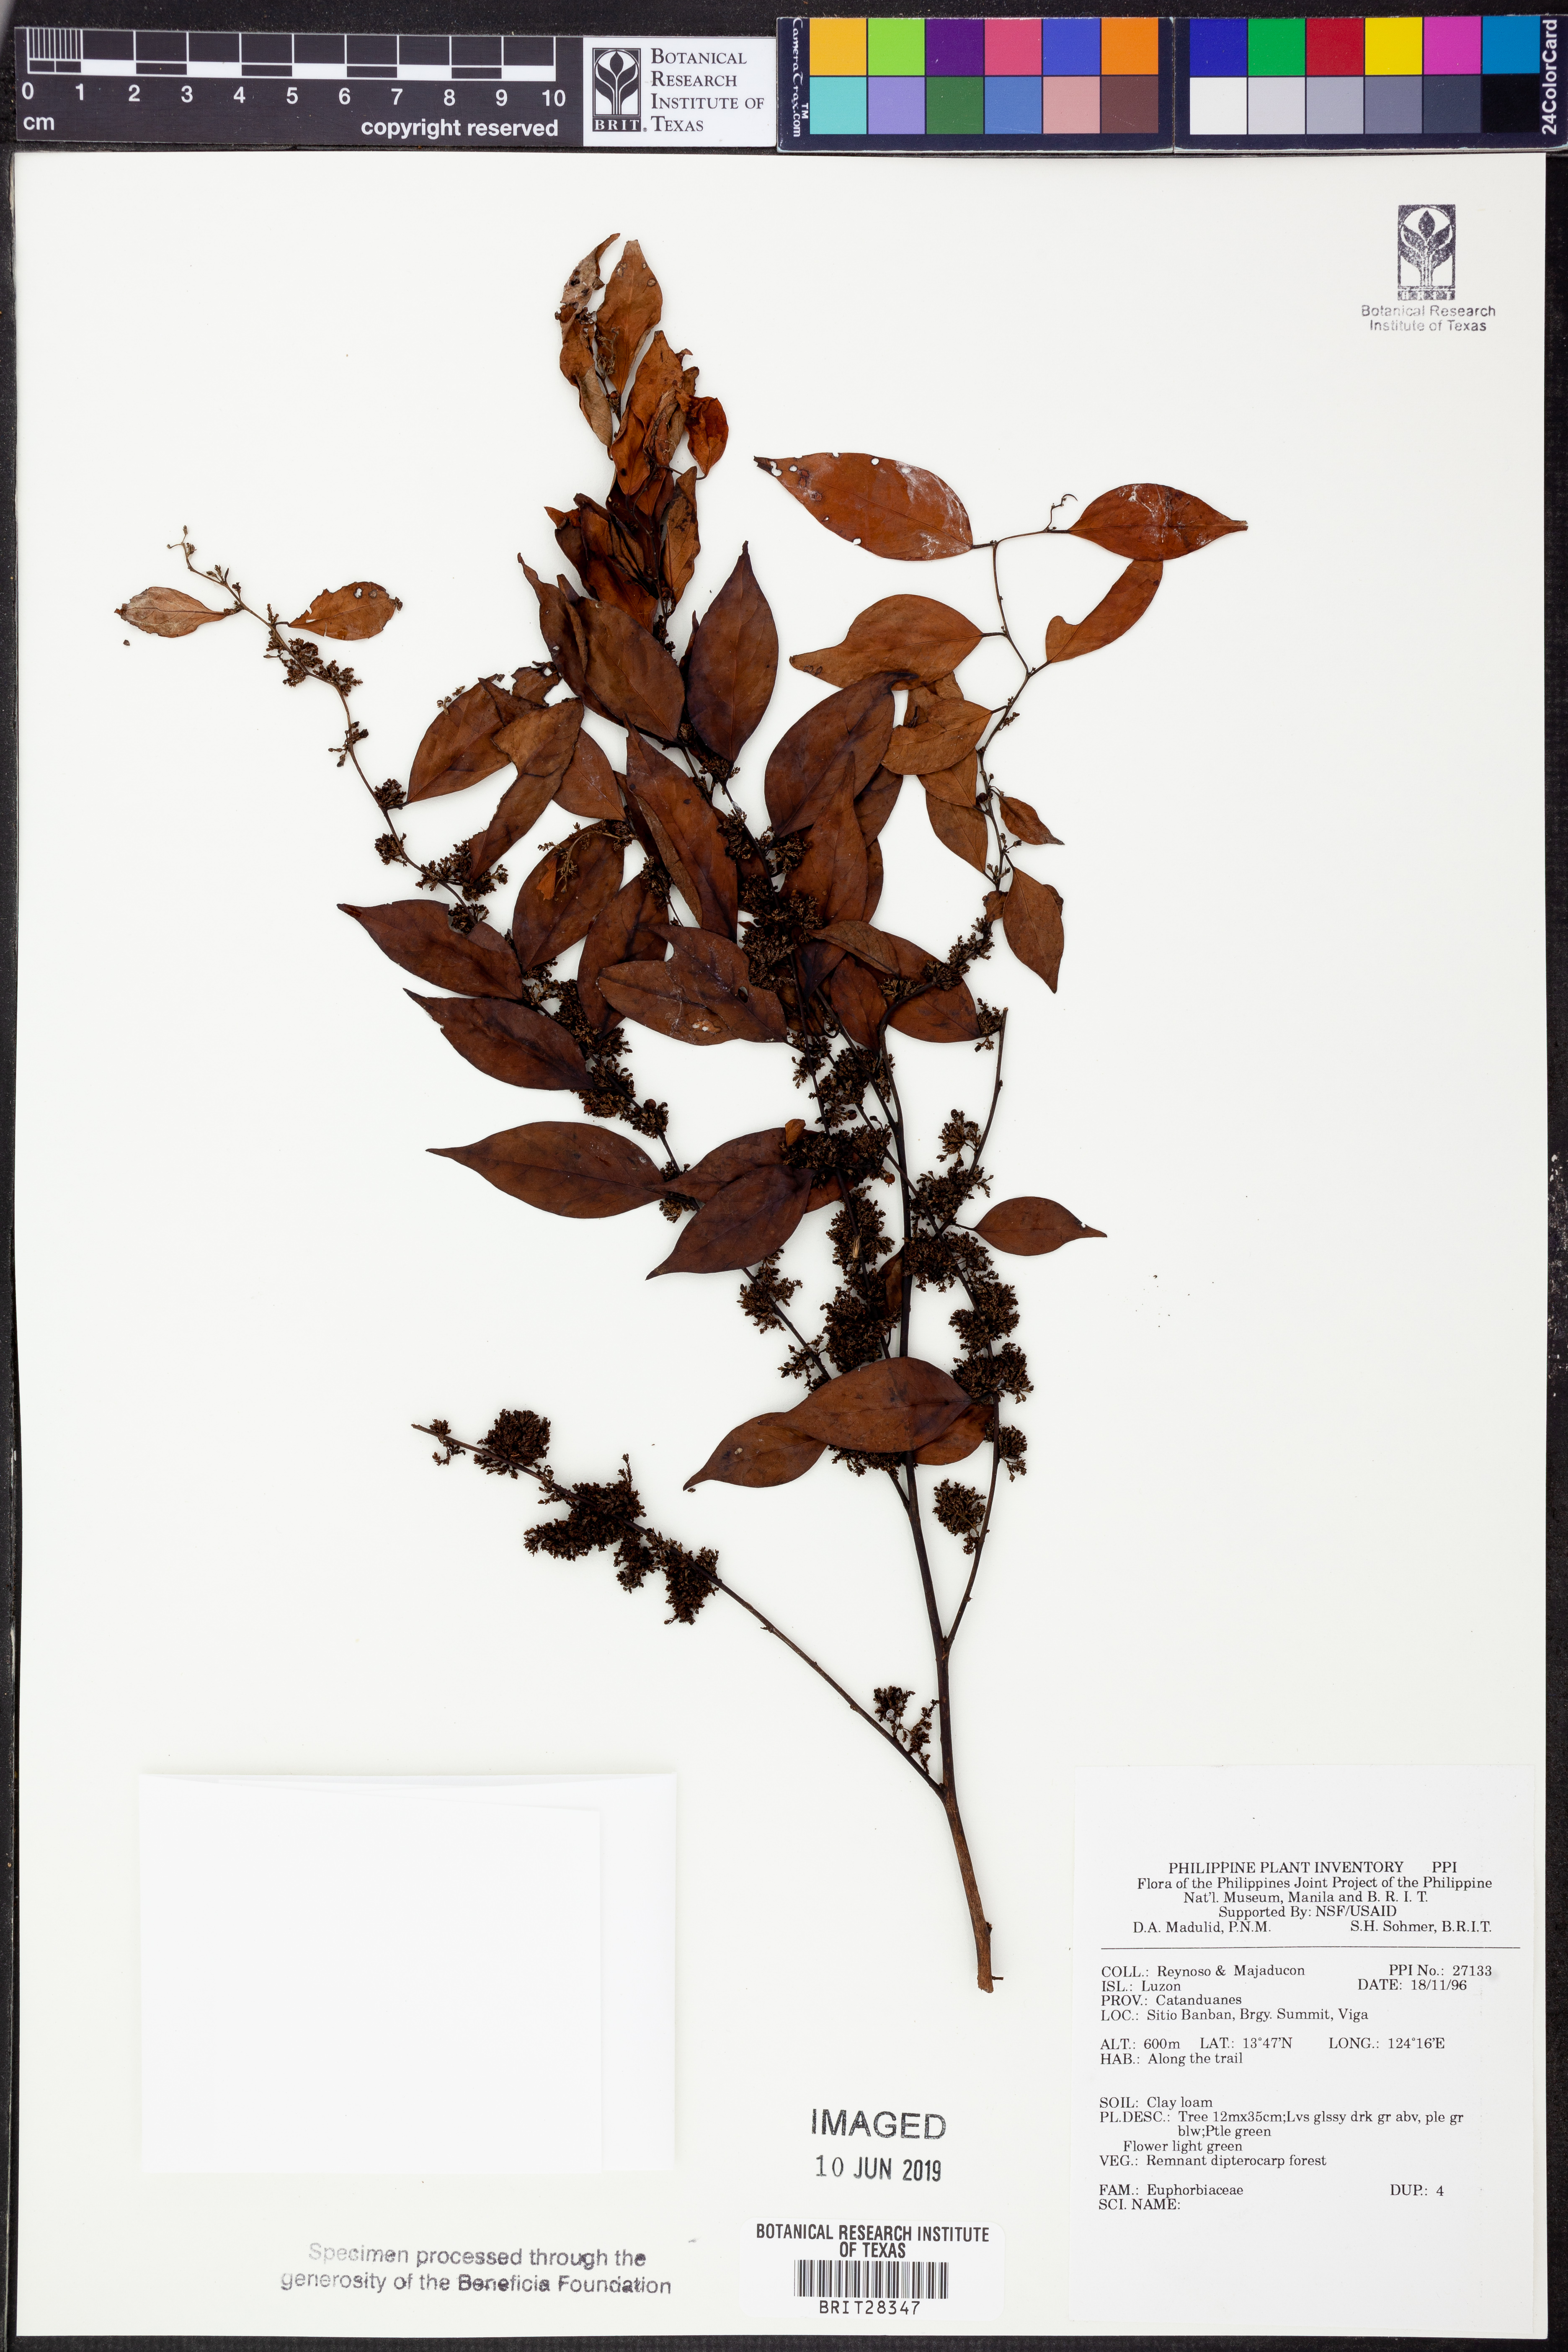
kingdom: Plantae
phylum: Tracheophyta
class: Magnoliopsida
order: Malpighiales
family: Euphorbiaceae
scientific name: Euphorbiaceae
